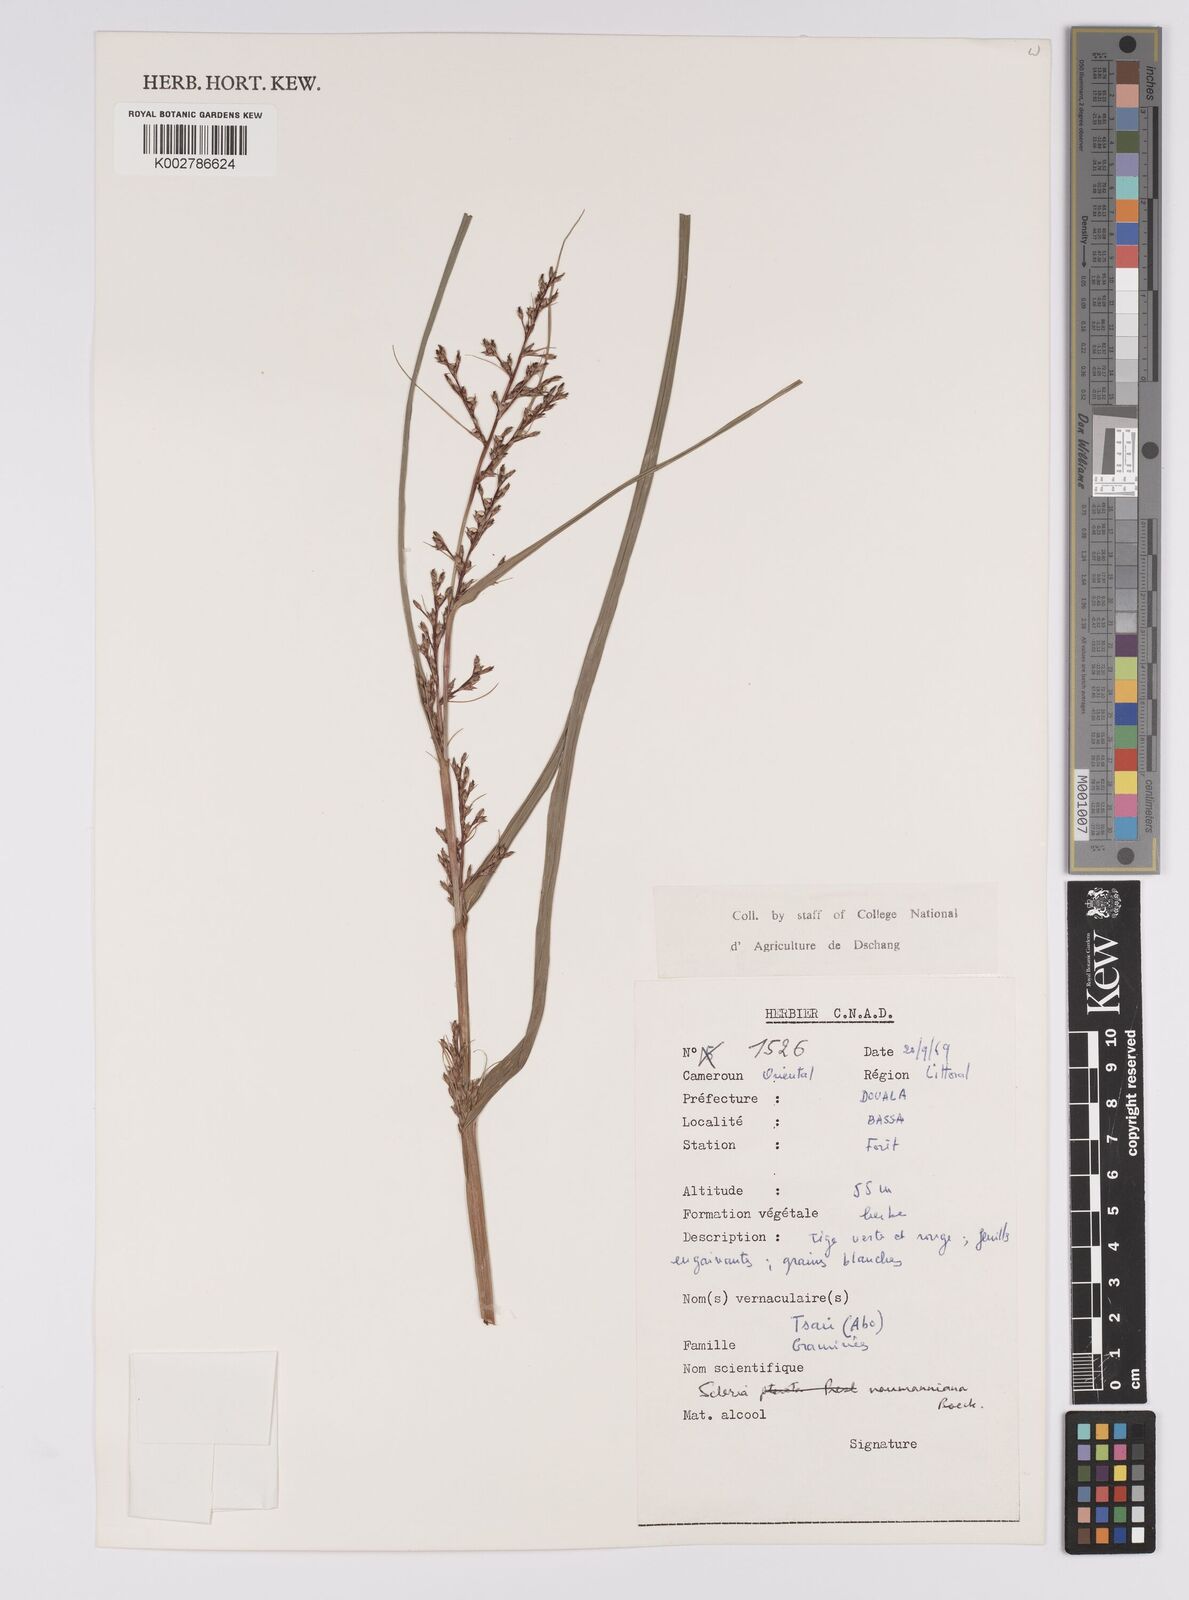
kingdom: Plantae
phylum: Tracheophyta
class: Liliopsida
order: Poales
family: Cyperaceae
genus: Scleria
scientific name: Scleria naumanniana
